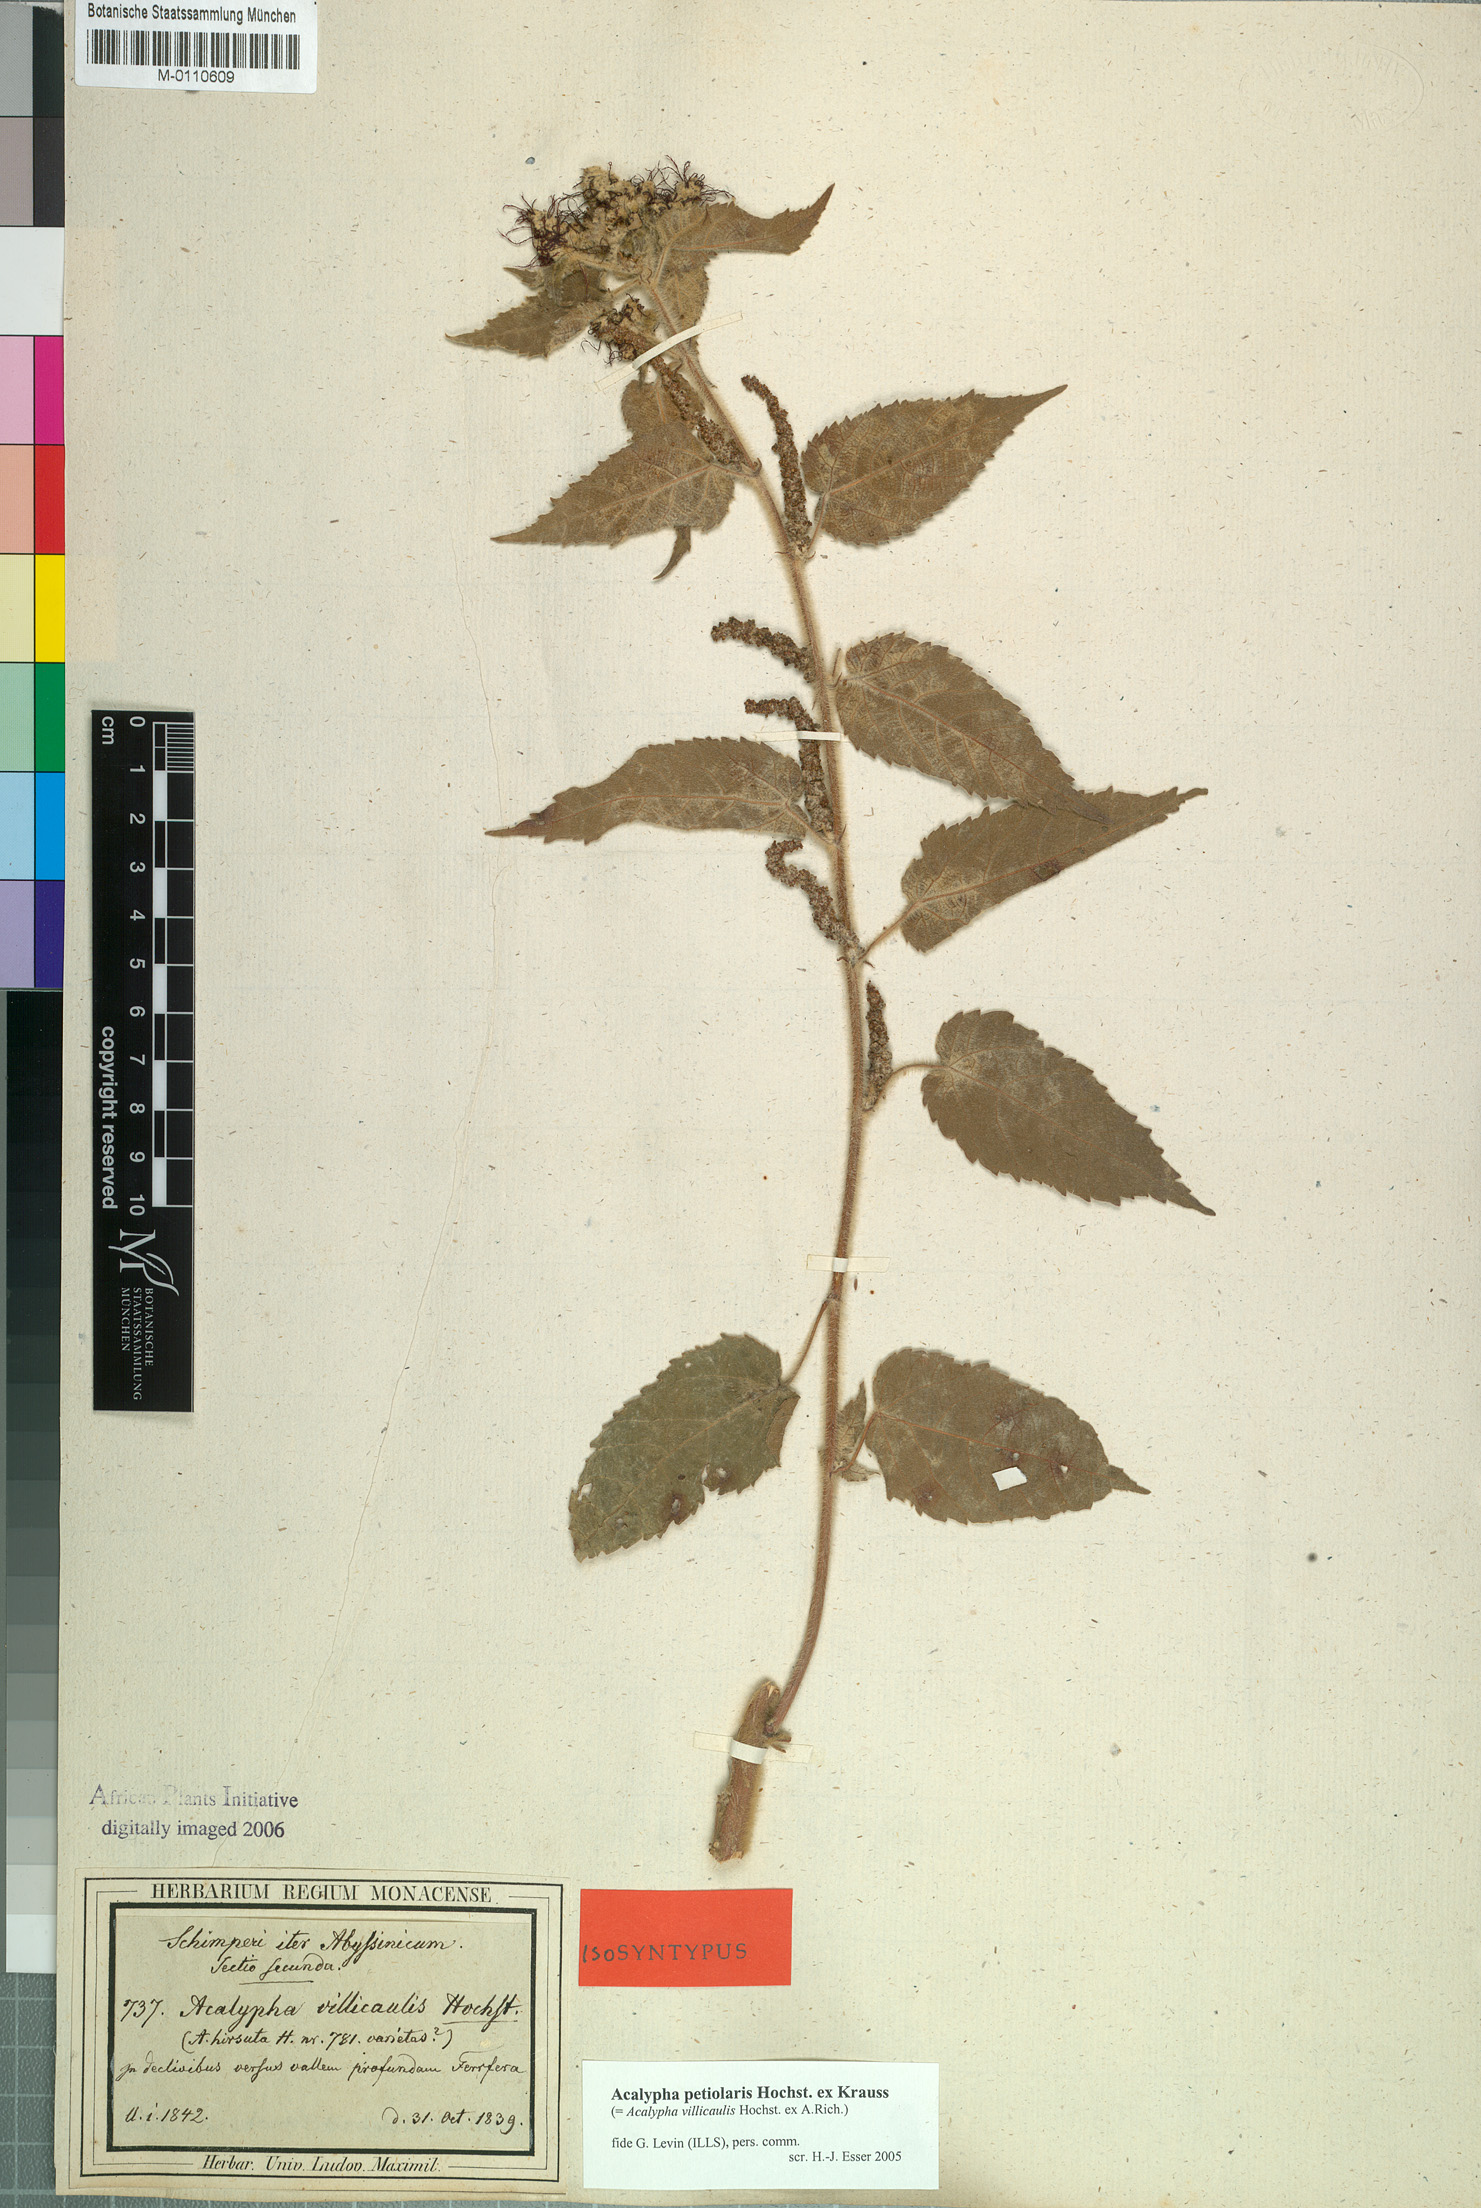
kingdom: Plantae
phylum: Tracheophyta
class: Magnoliopsida
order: Malpighiales
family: Euphorbiaceae
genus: Acalypha
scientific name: Acalypha petiolaris
